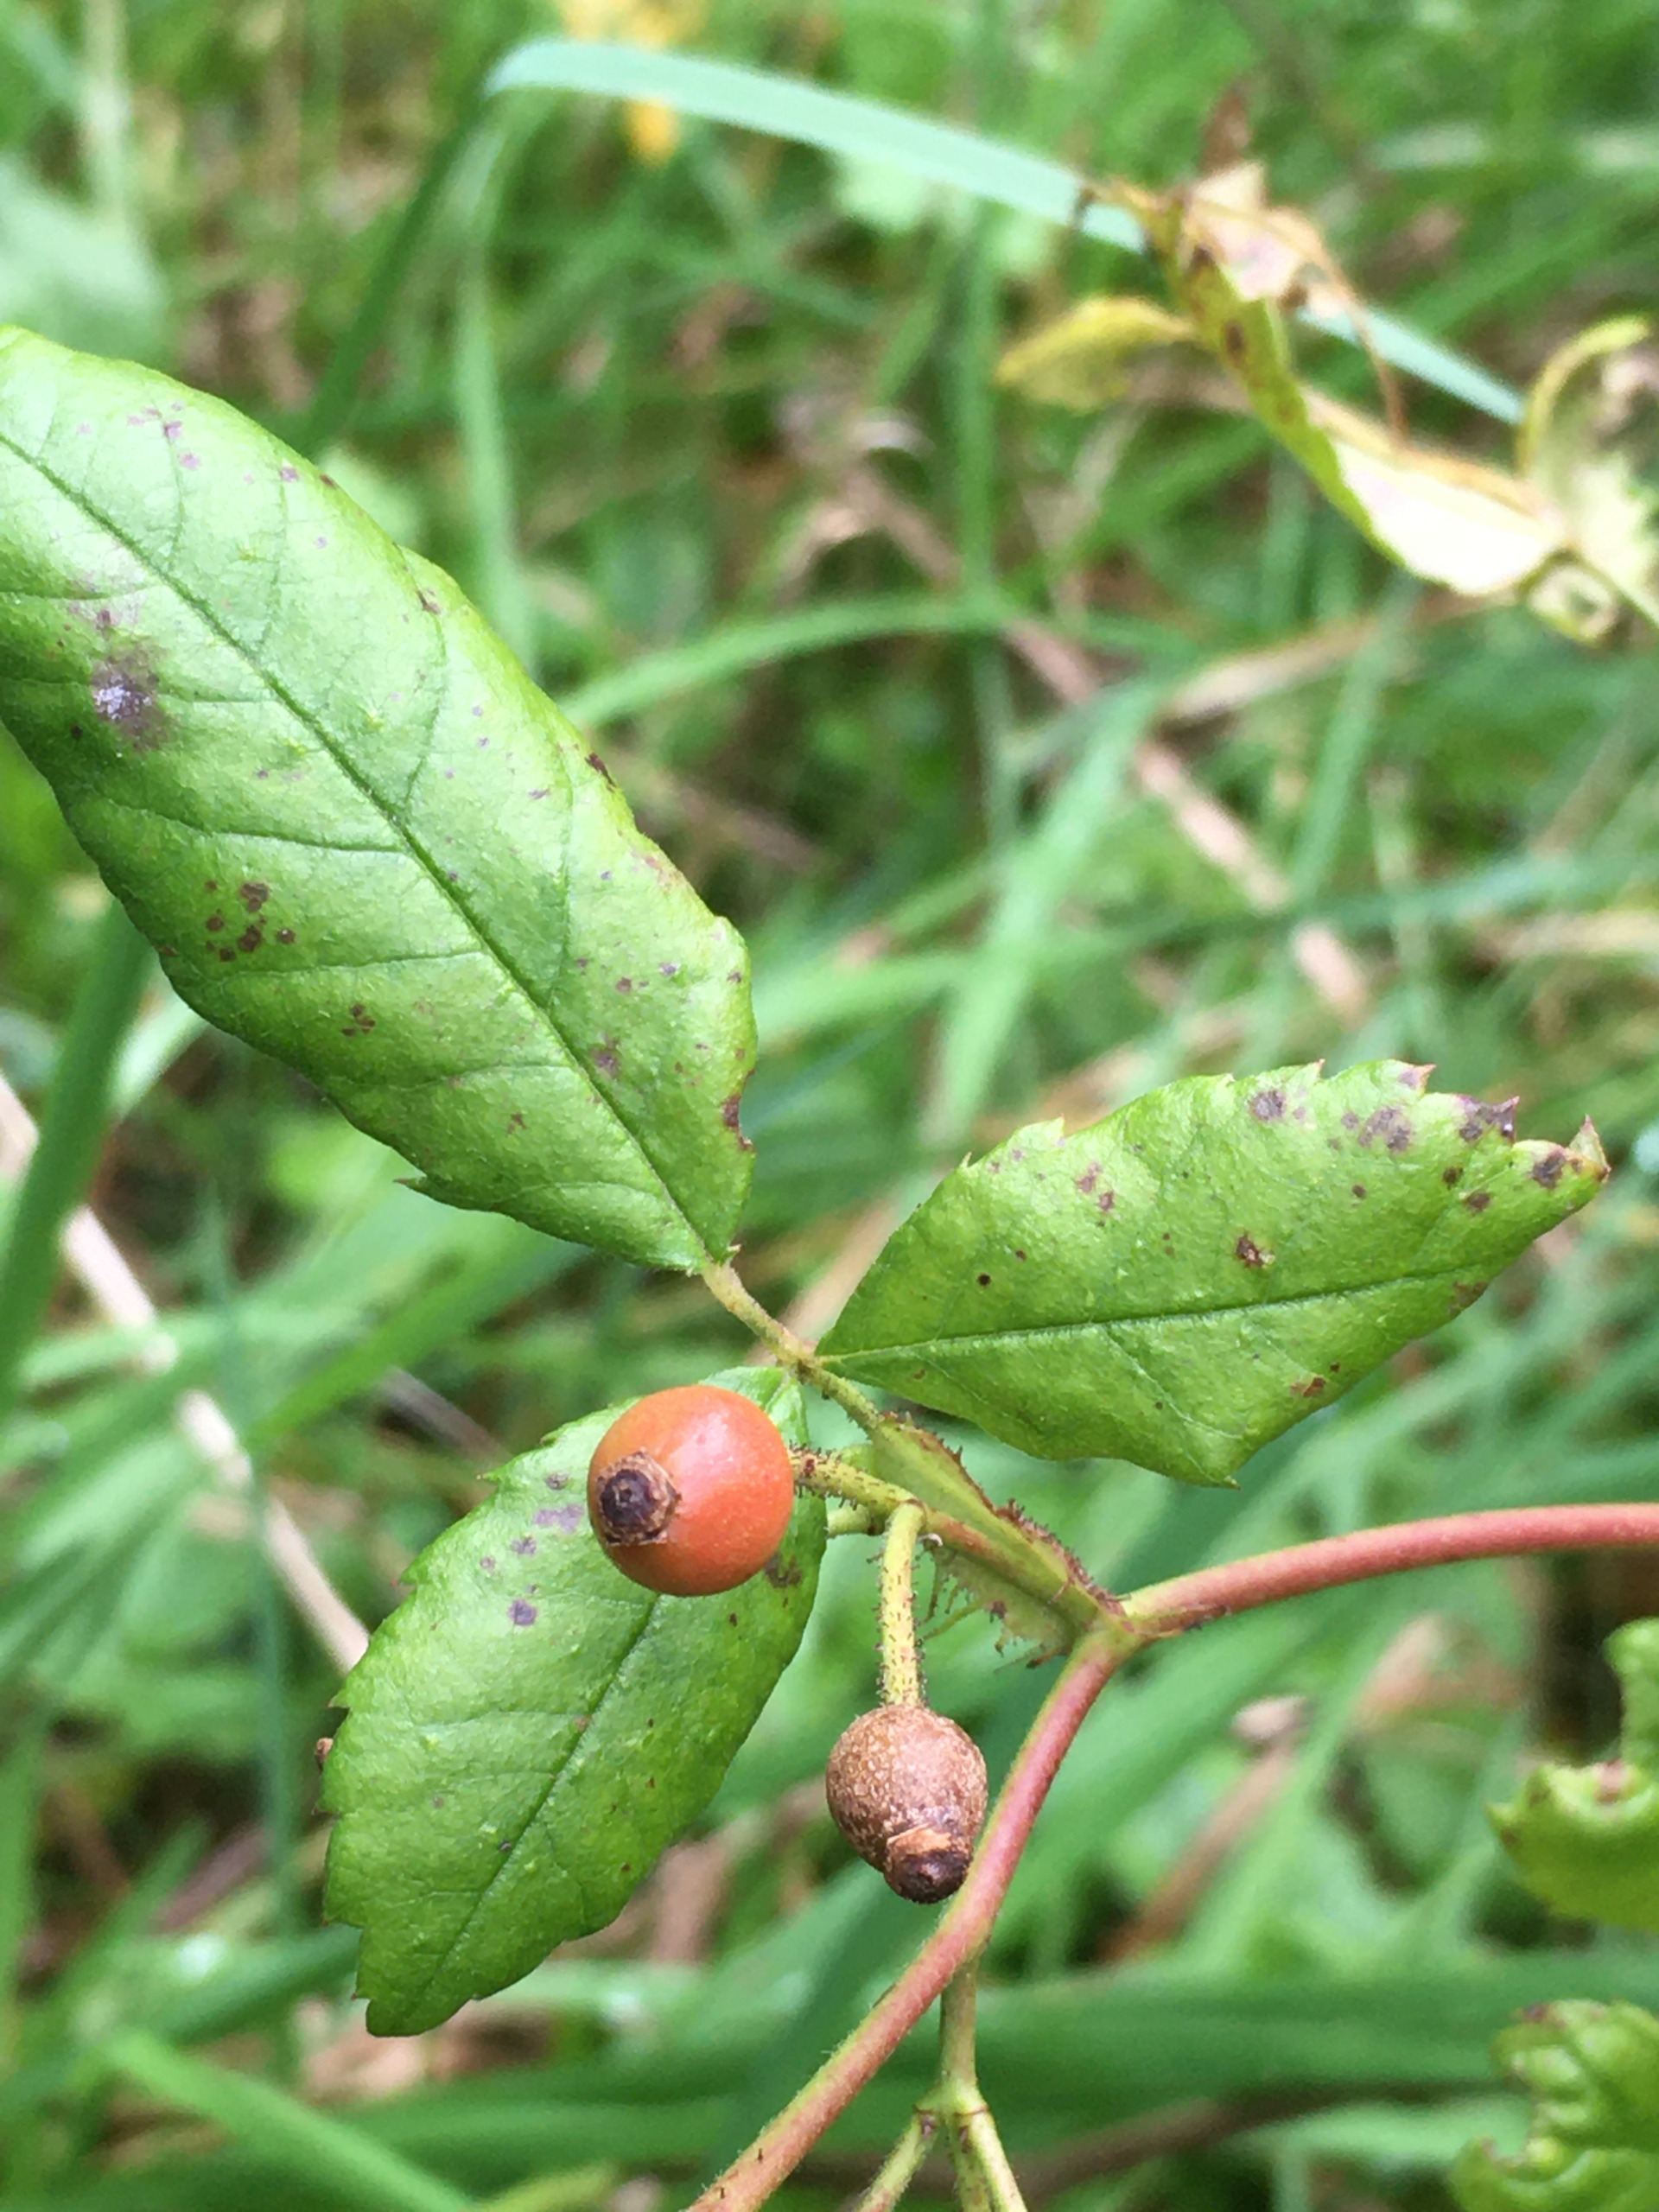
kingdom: Plantae
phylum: Tracheophyta
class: Magnoliopsida
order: Rosales
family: Rosaceae
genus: Rosa
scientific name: Rosa multiflora
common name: Mangeblomstret rose
